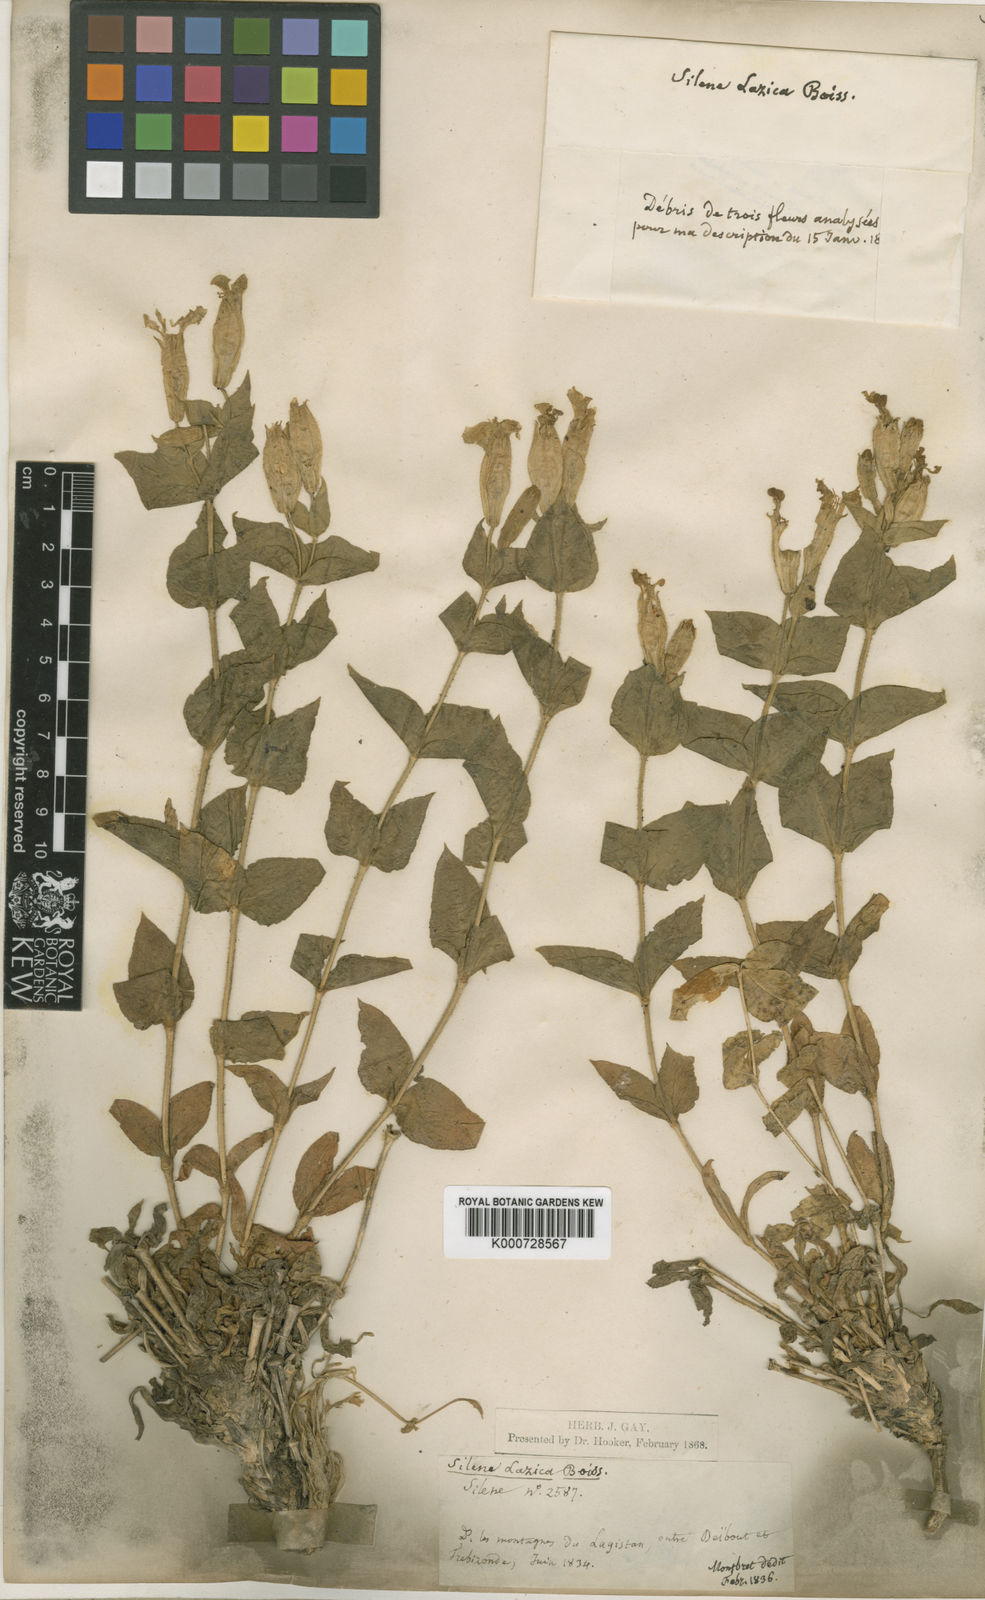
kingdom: Plantae
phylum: Tracheophyta
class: Magnoliopsida
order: Caryophyllales
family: Caryophyllaceae
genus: Silene
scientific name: Silene lazica
